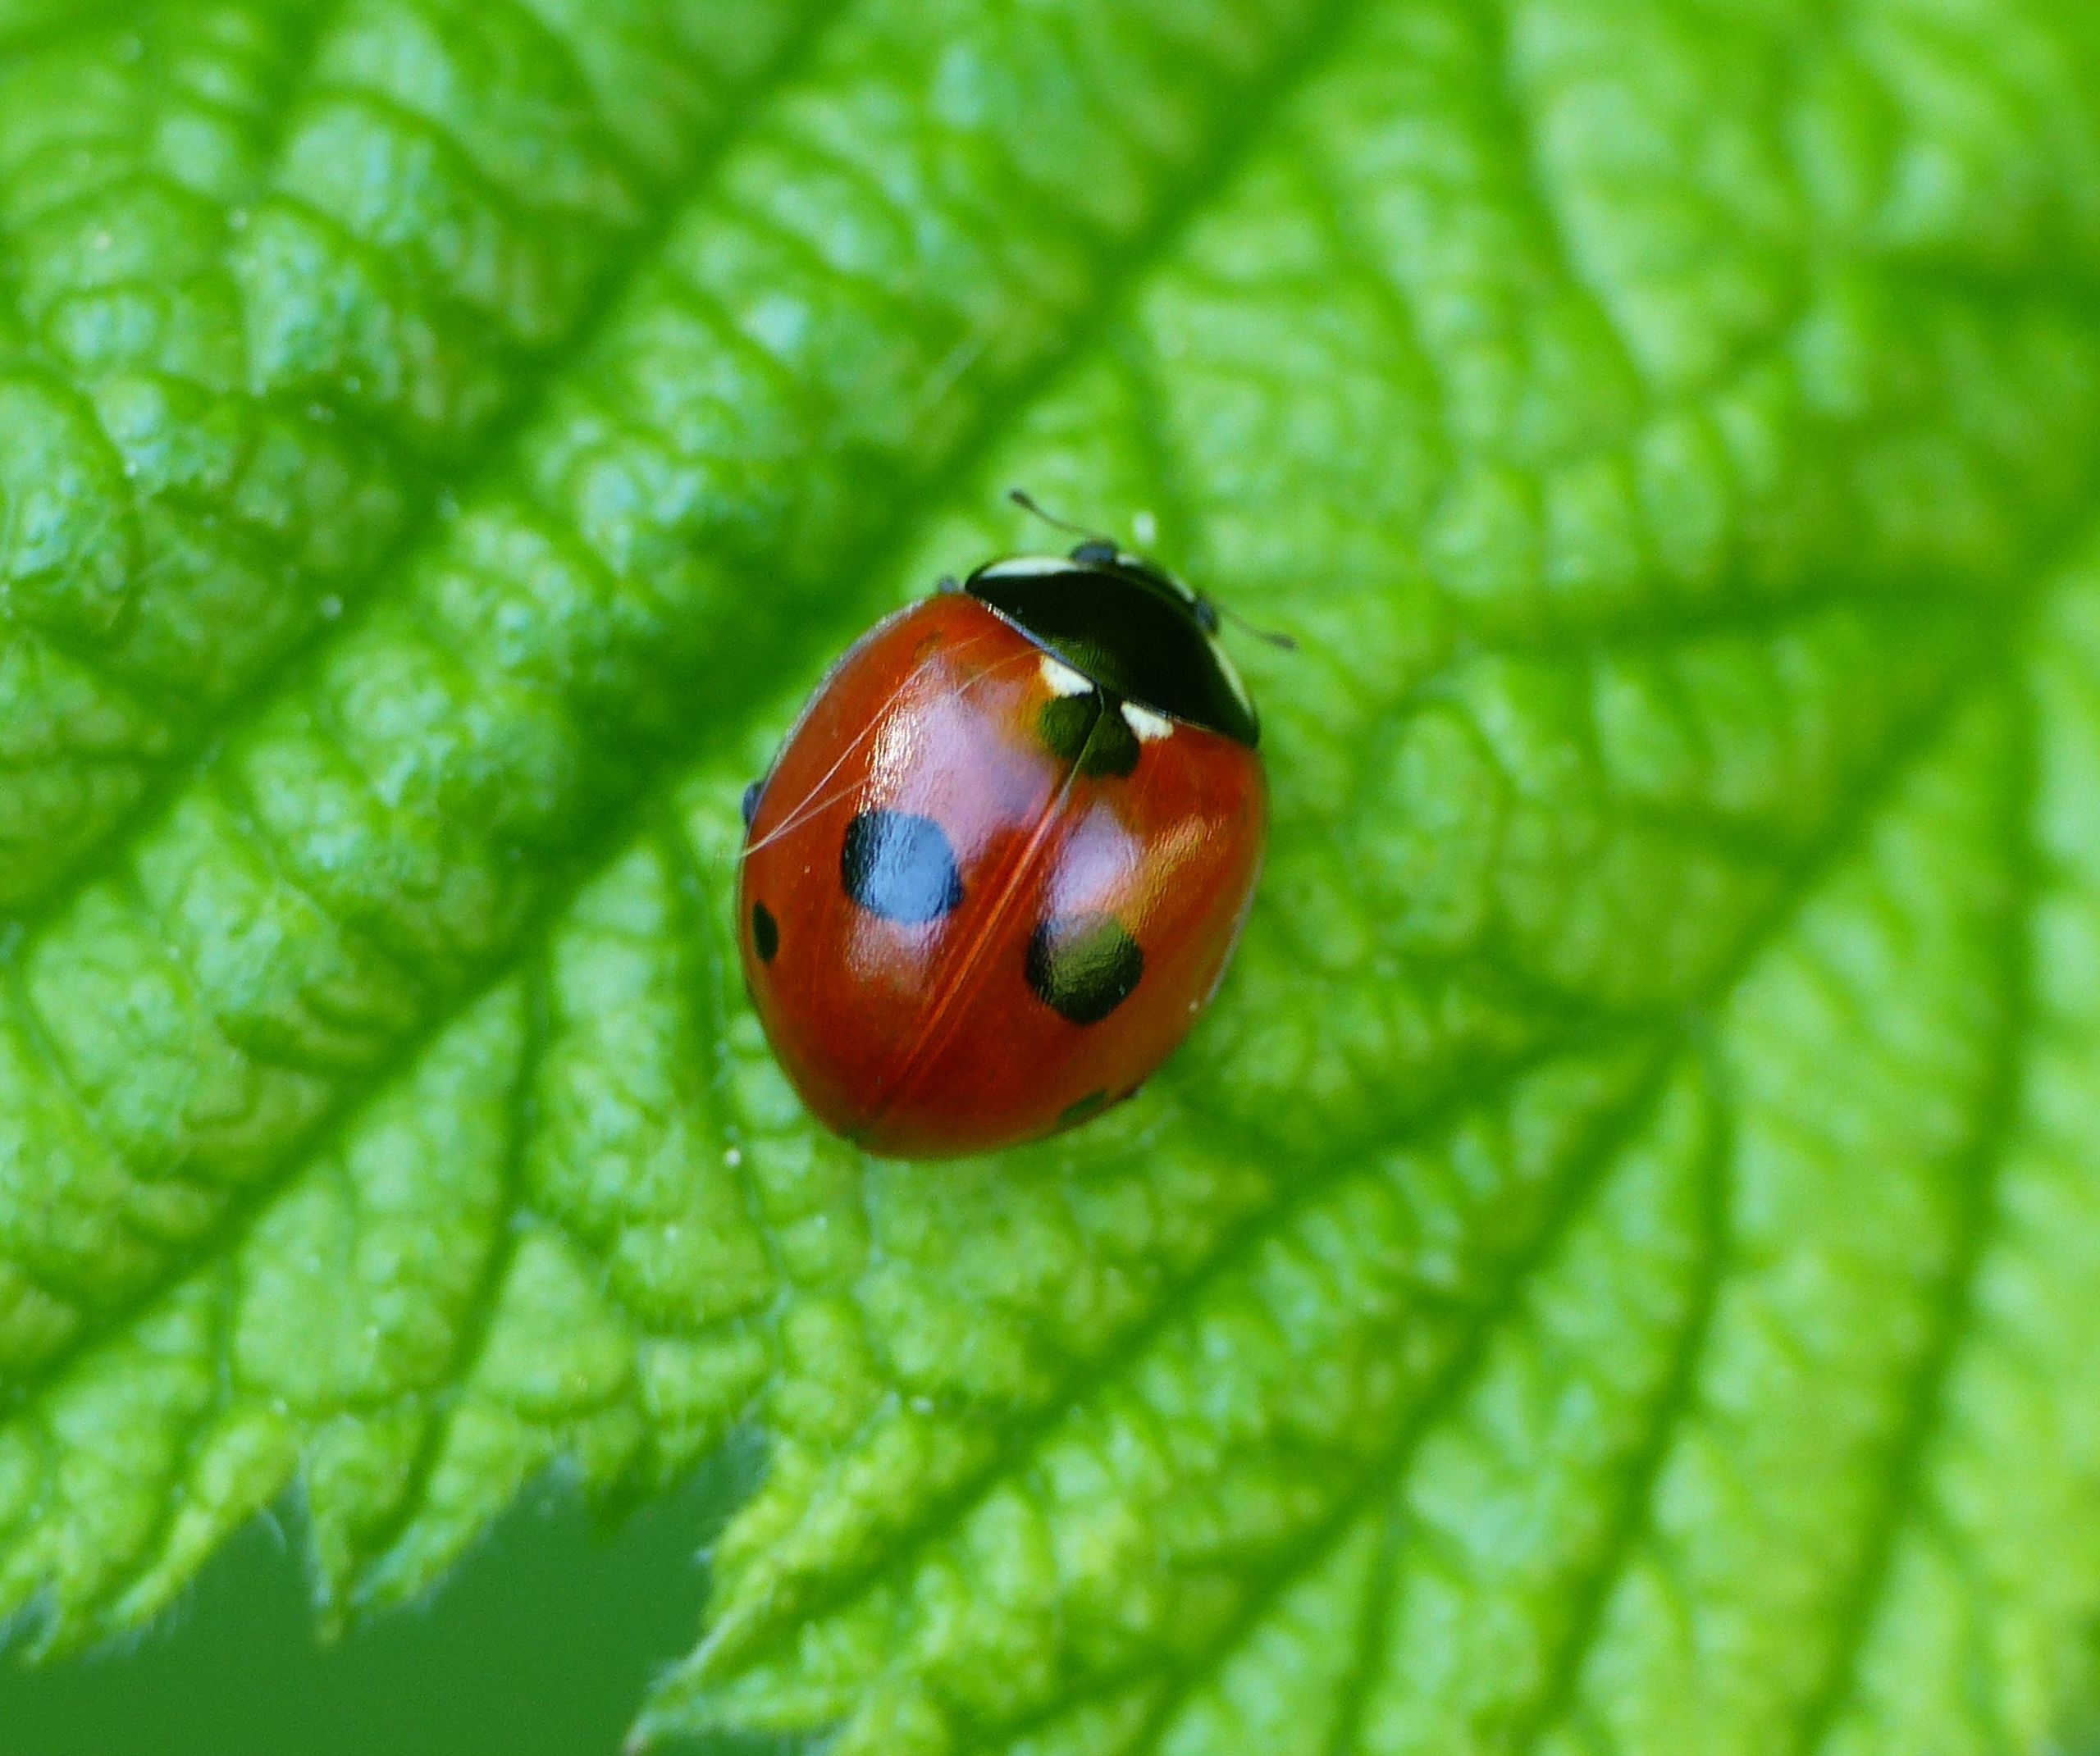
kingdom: Animalia
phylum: Arthropoda
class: Insecta
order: Coleoptera
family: Coccinellidae
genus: Coccinella
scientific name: Coccinella quinquepunctata
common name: Femplettet mariehøne
